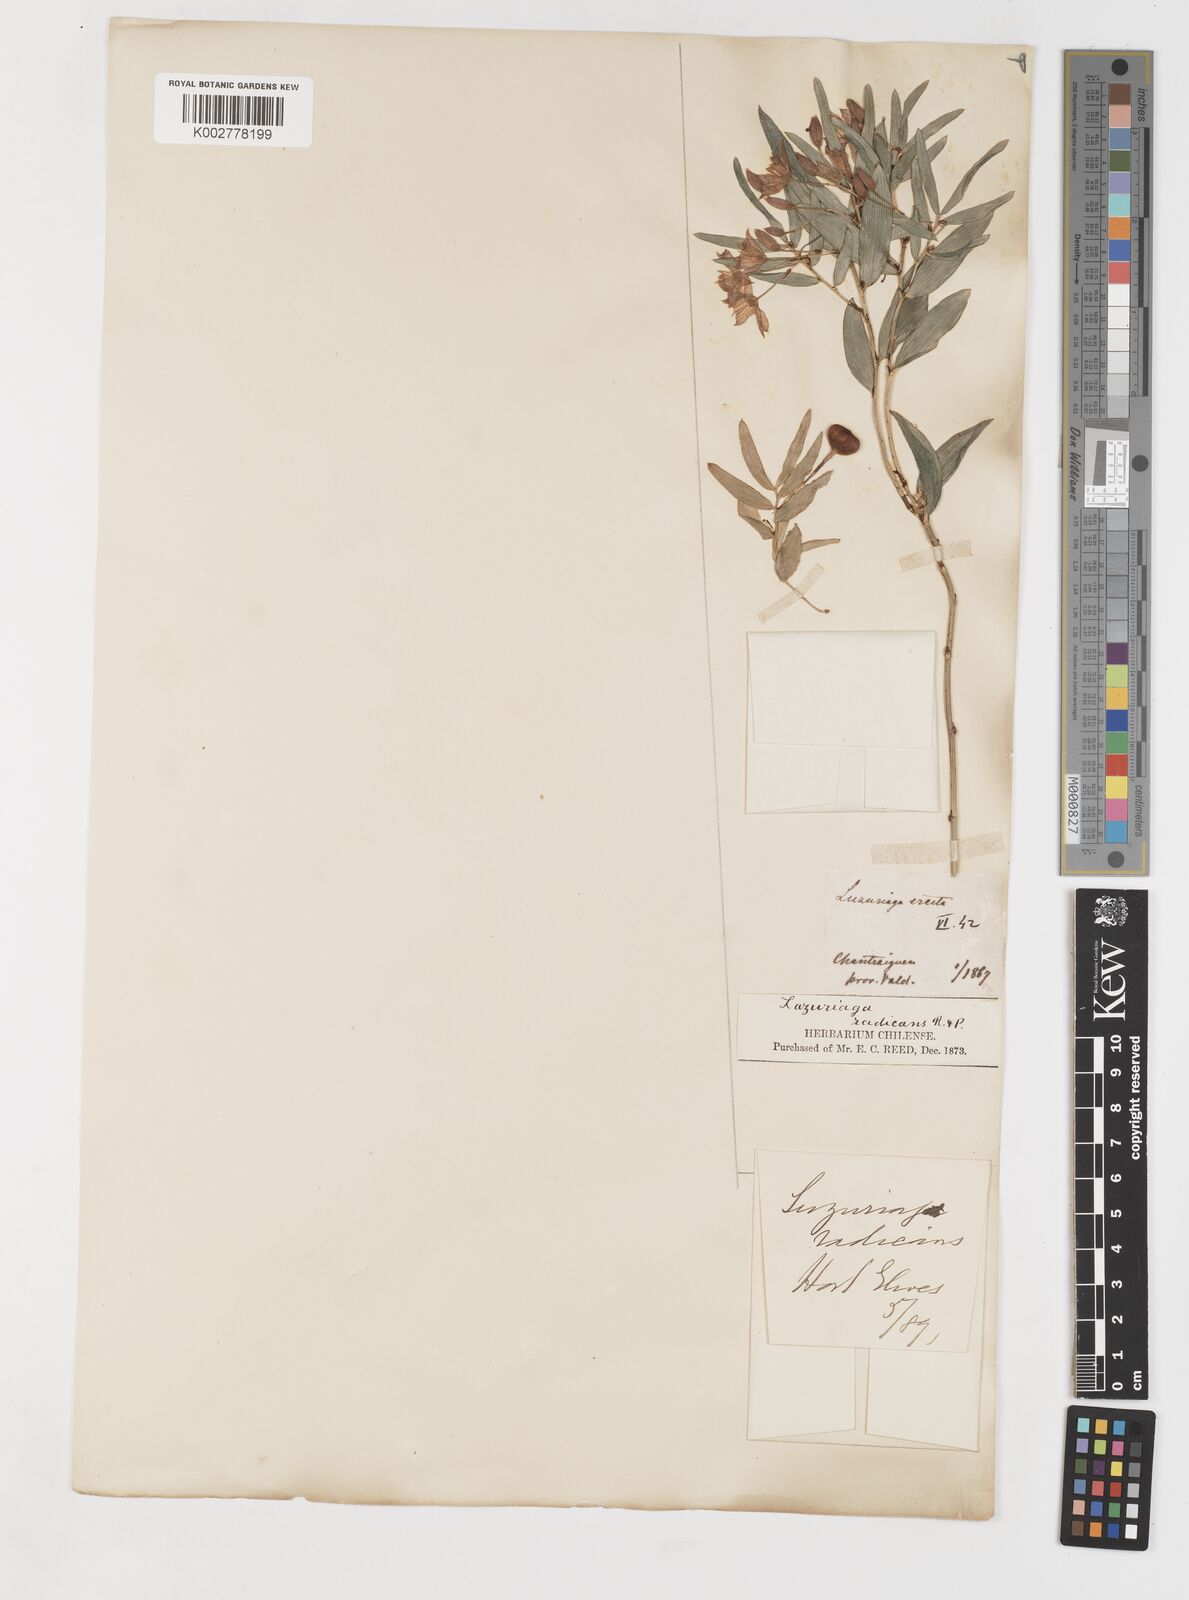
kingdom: Plantae
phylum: Tracheophyta
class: Liliopsida
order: Liliales
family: Alstroemeriaceae
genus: Luzuriaga
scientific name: Luzuriaga radicans
